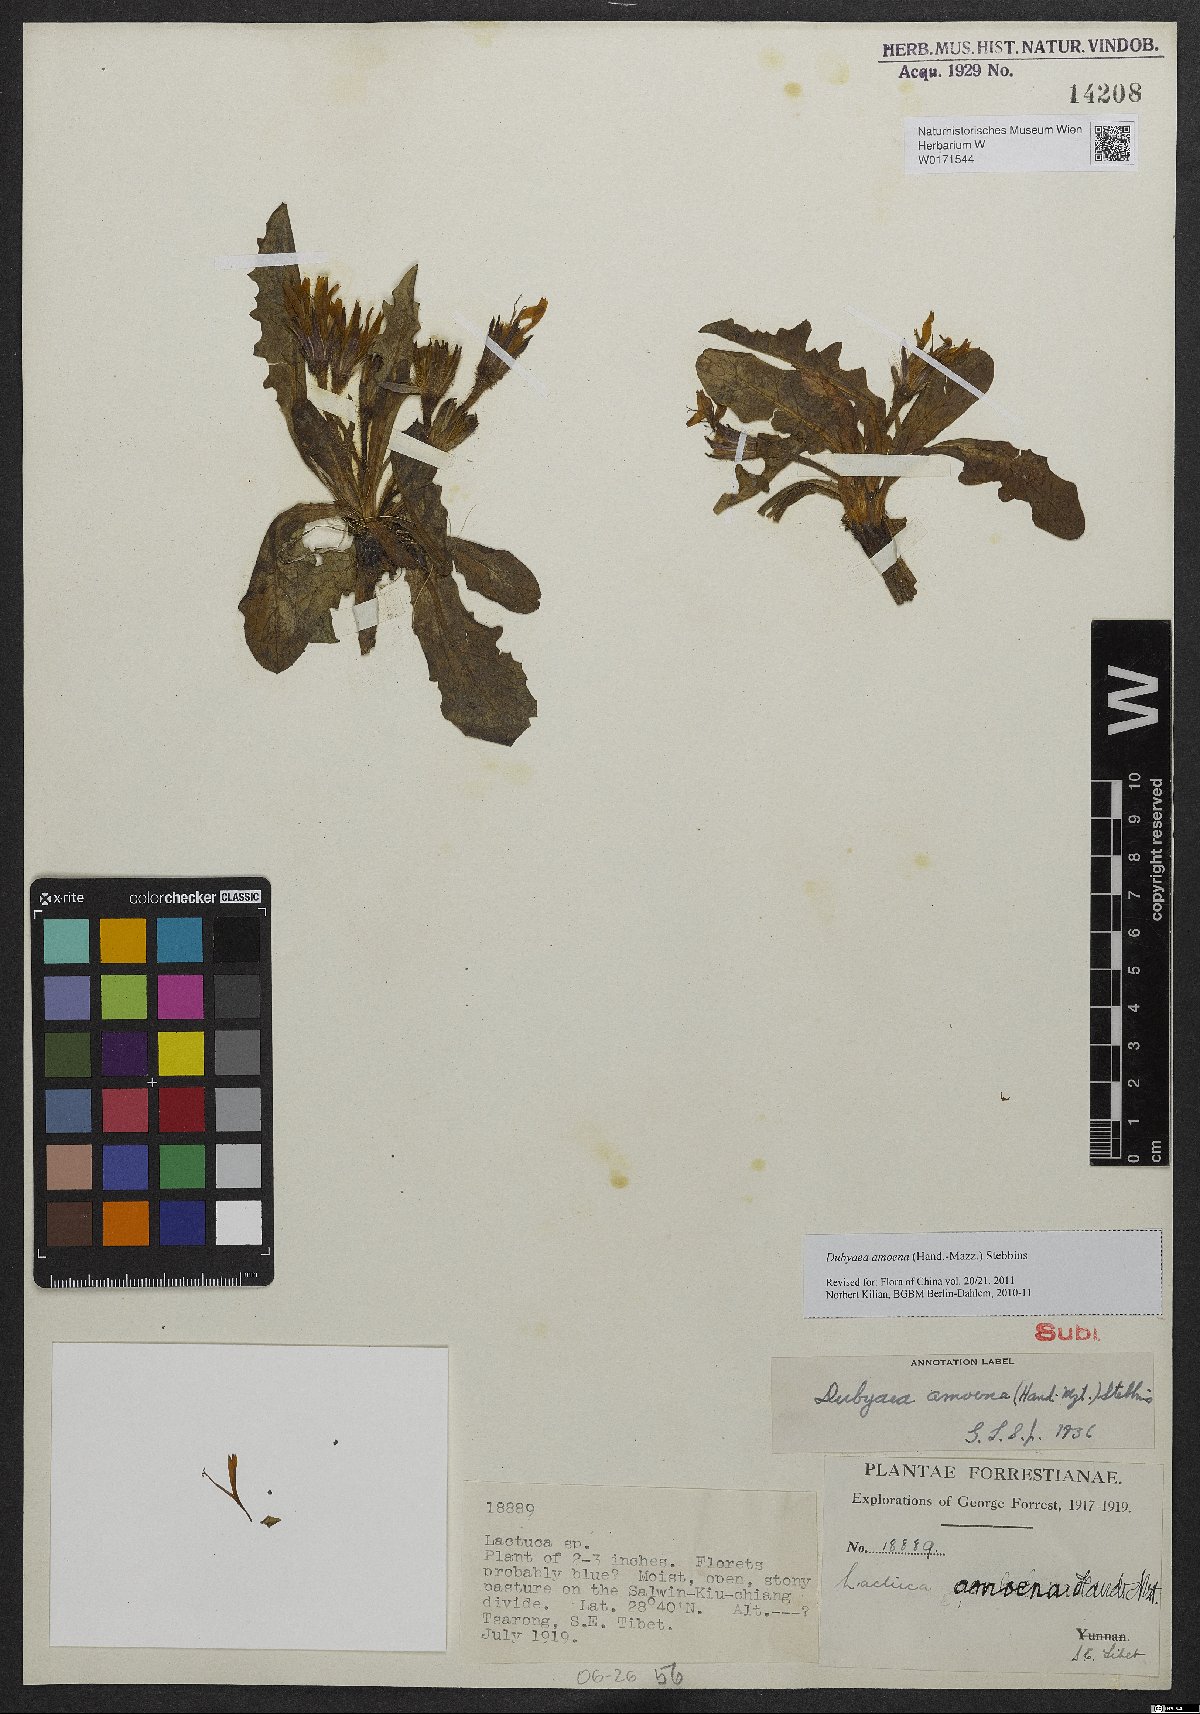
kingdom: Plantae
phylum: Tracheophyta
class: Magnoliopsida
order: Asterales
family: Asteraceae
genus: Lihengia
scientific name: Lihengia amoena
